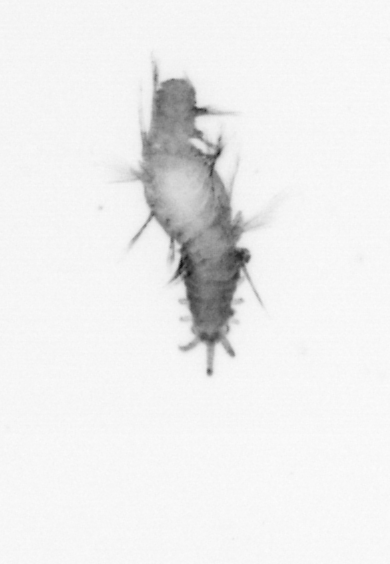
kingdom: Animalia
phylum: Annelida
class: Polychaeta
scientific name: Polychaeta
